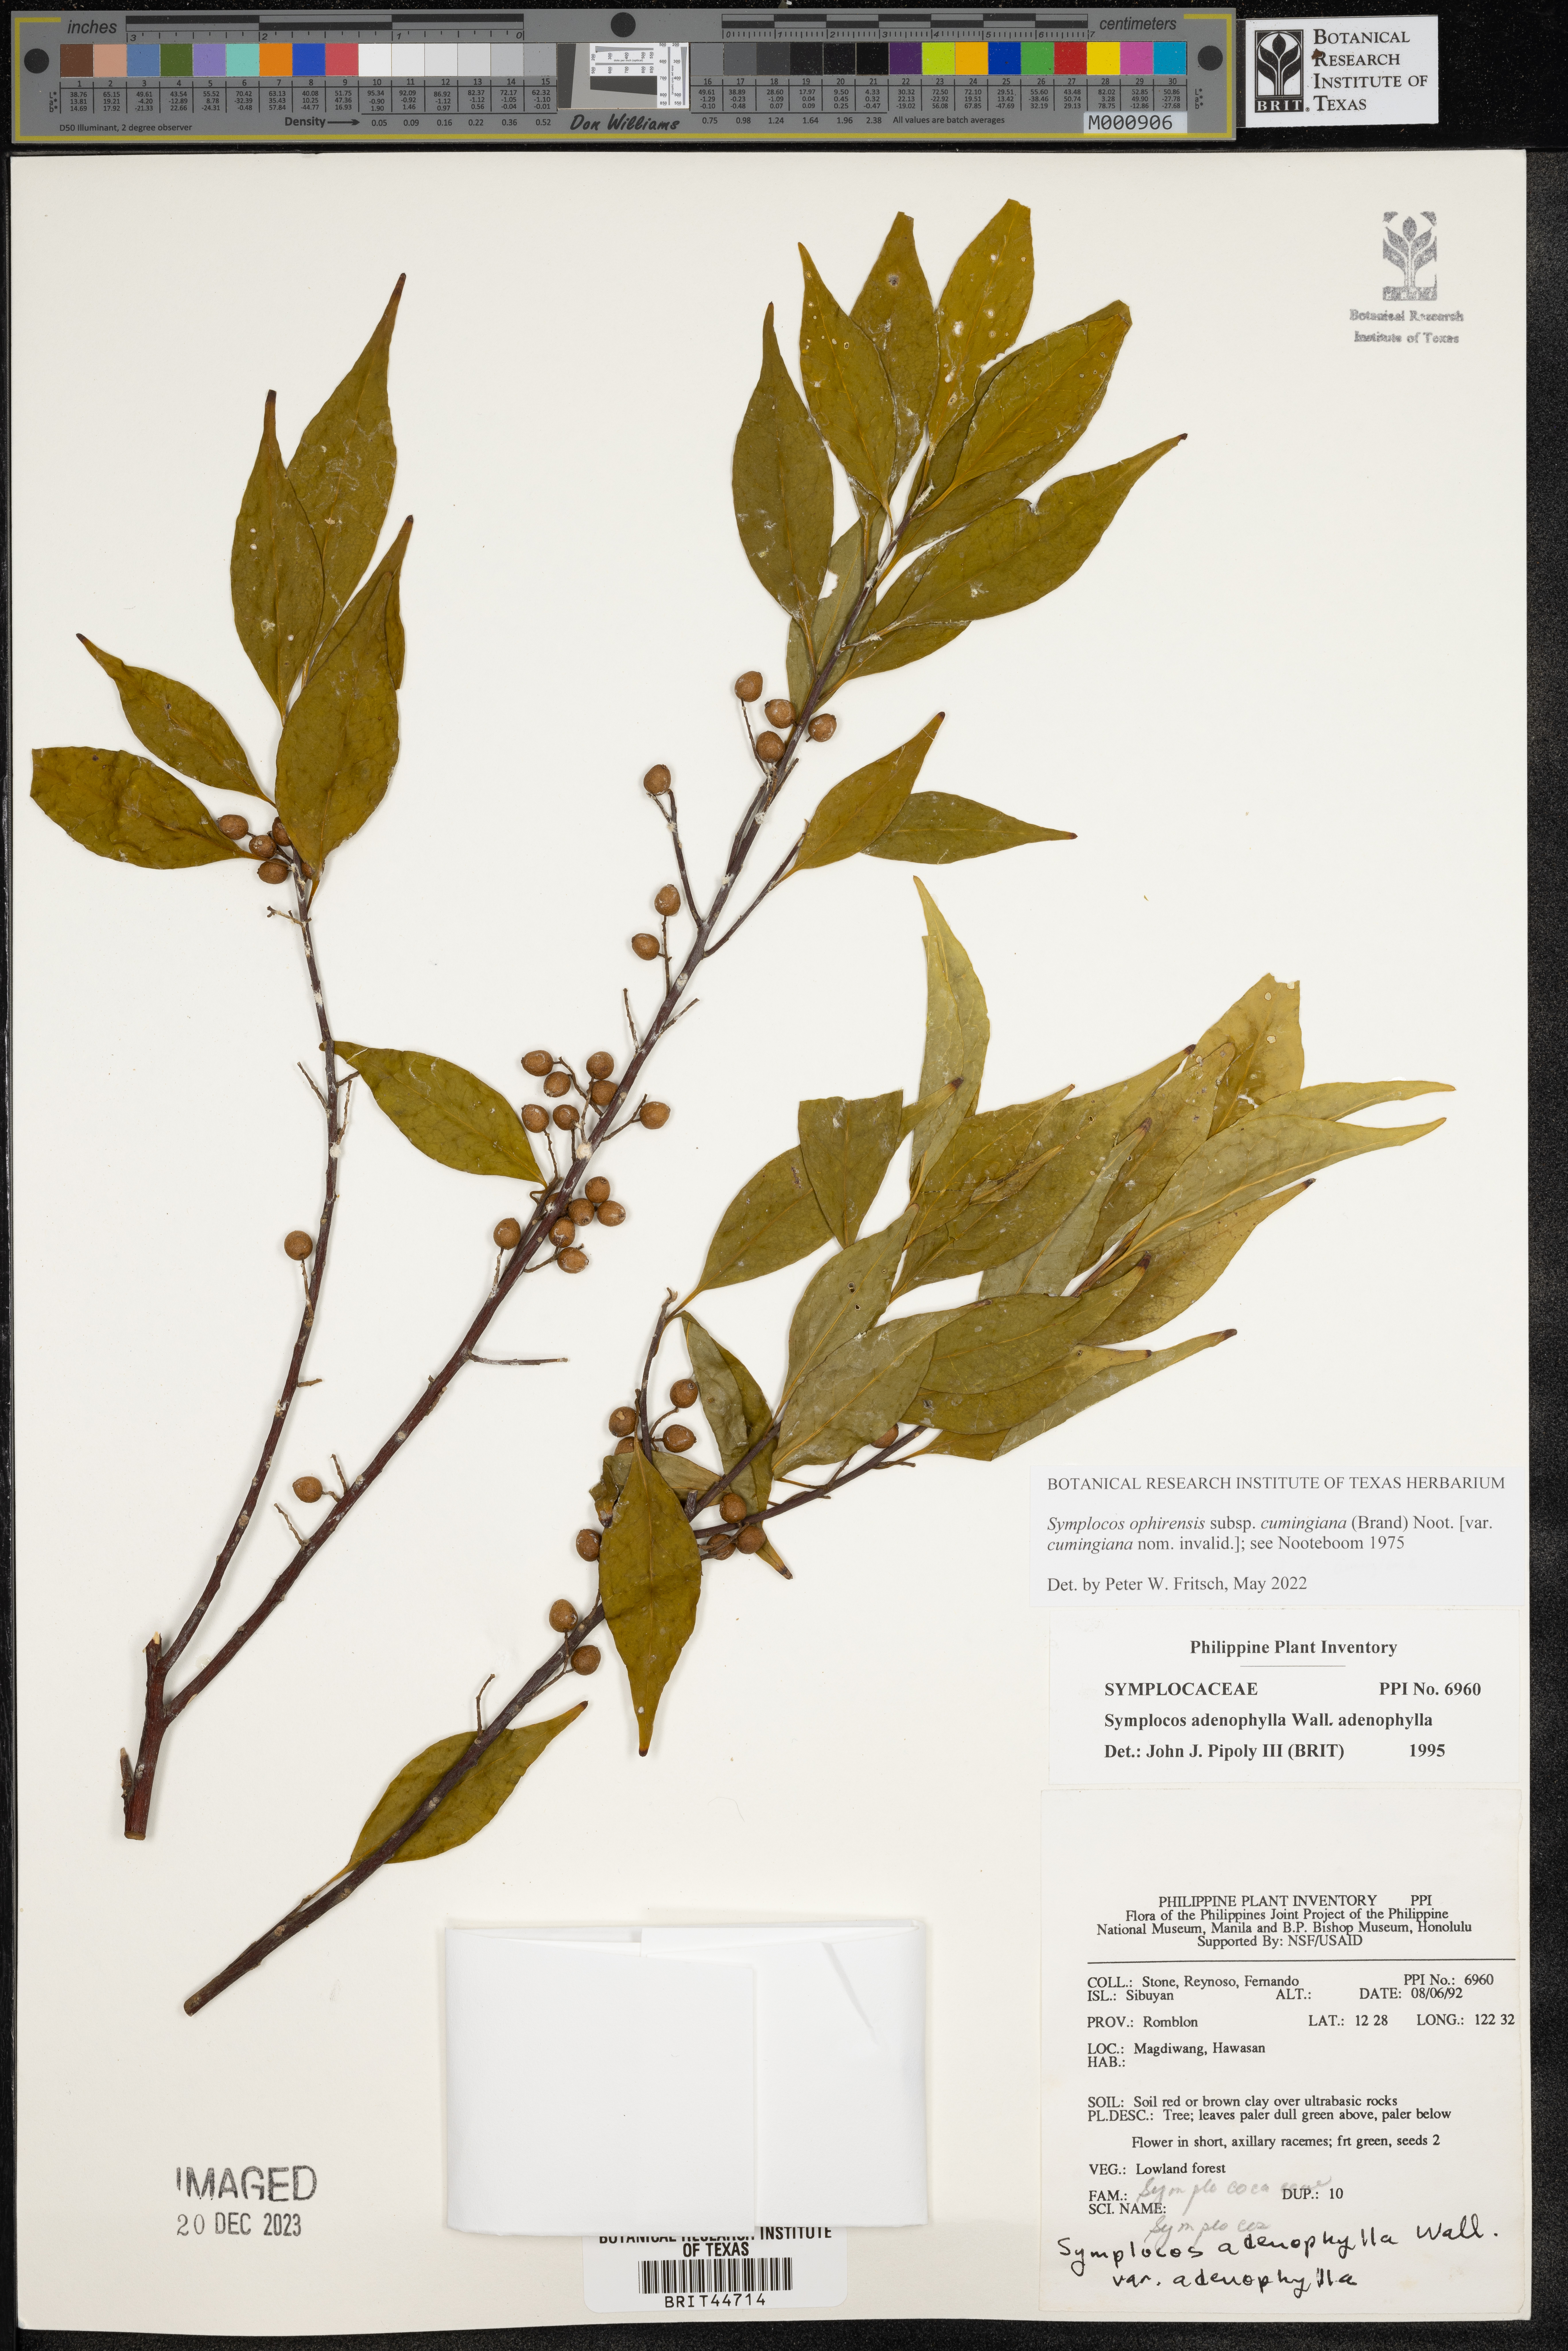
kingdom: Plantae
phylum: Tracheophyta
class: Magnoliopsida
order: Ericales
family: Symplocaceae
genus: Symplocos
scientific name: Symplocos adenophylla
